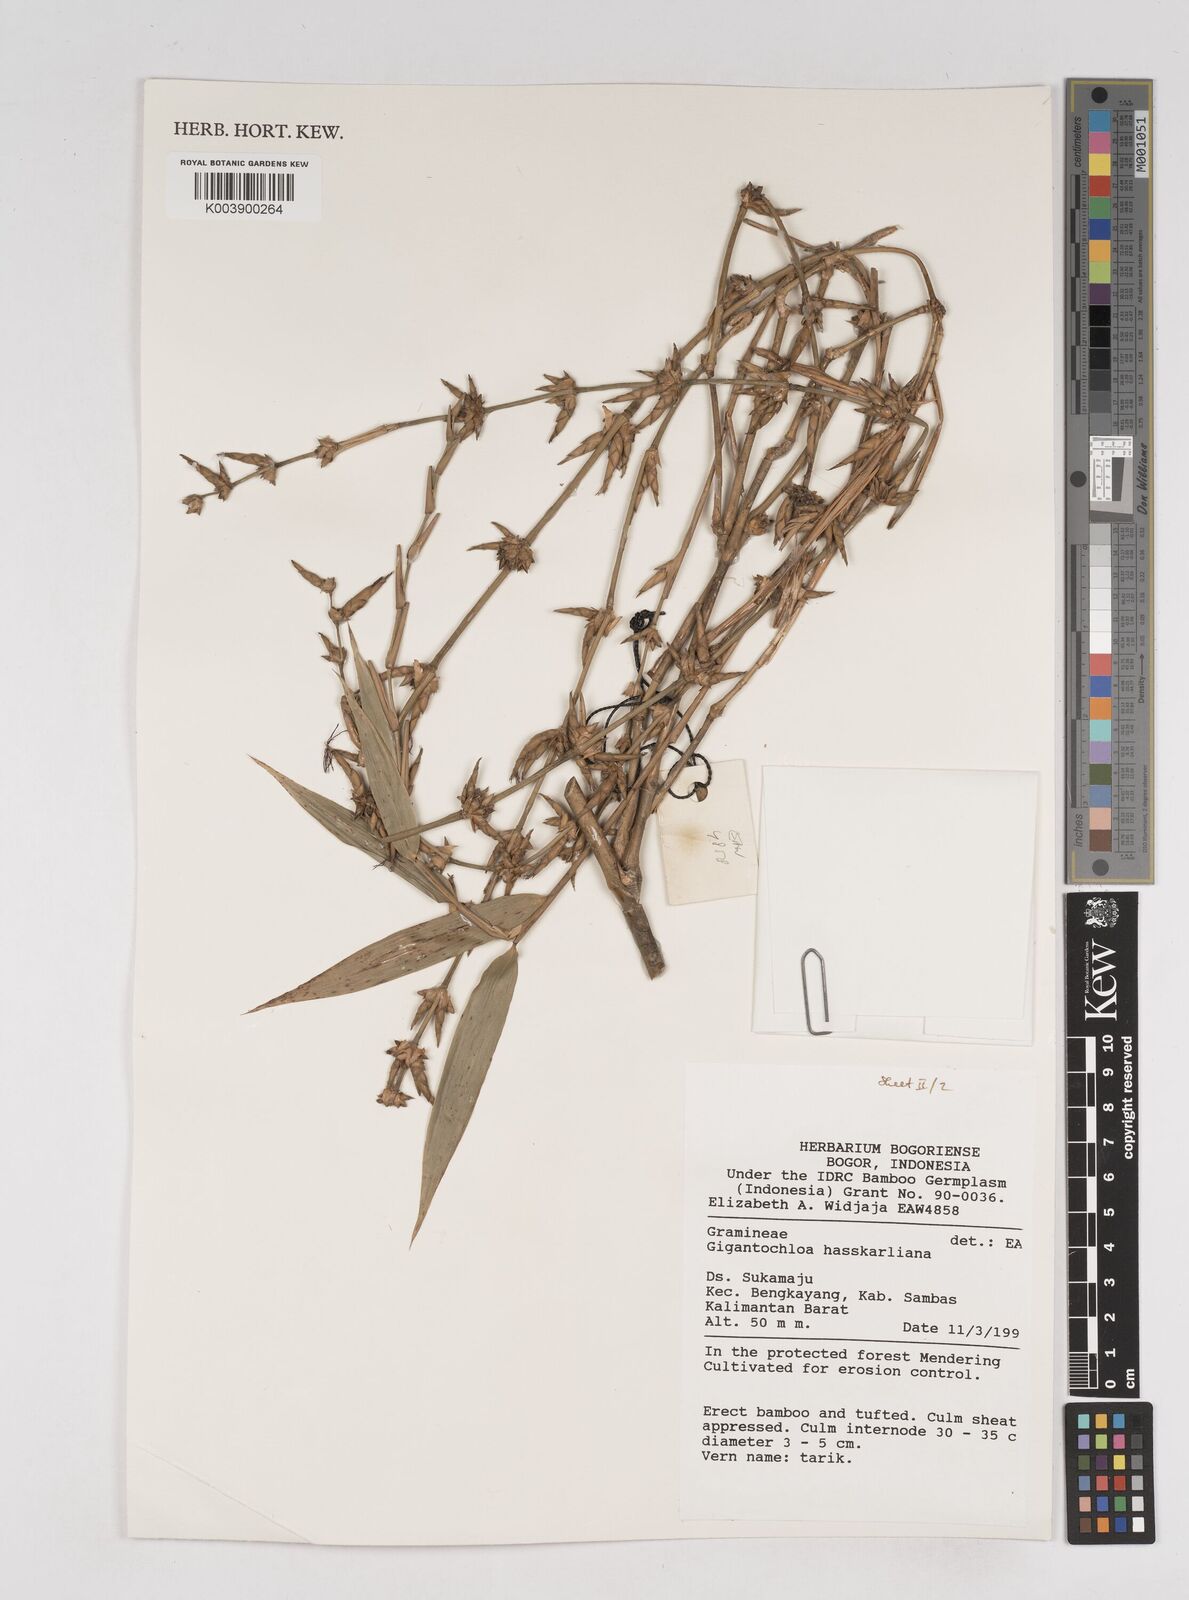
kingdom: Plantae
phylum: Tracheophyta
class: Liliopsida
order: Poales
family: Poaceae
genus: Gigantochloa
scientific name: Gigantochloa hasskarliana
